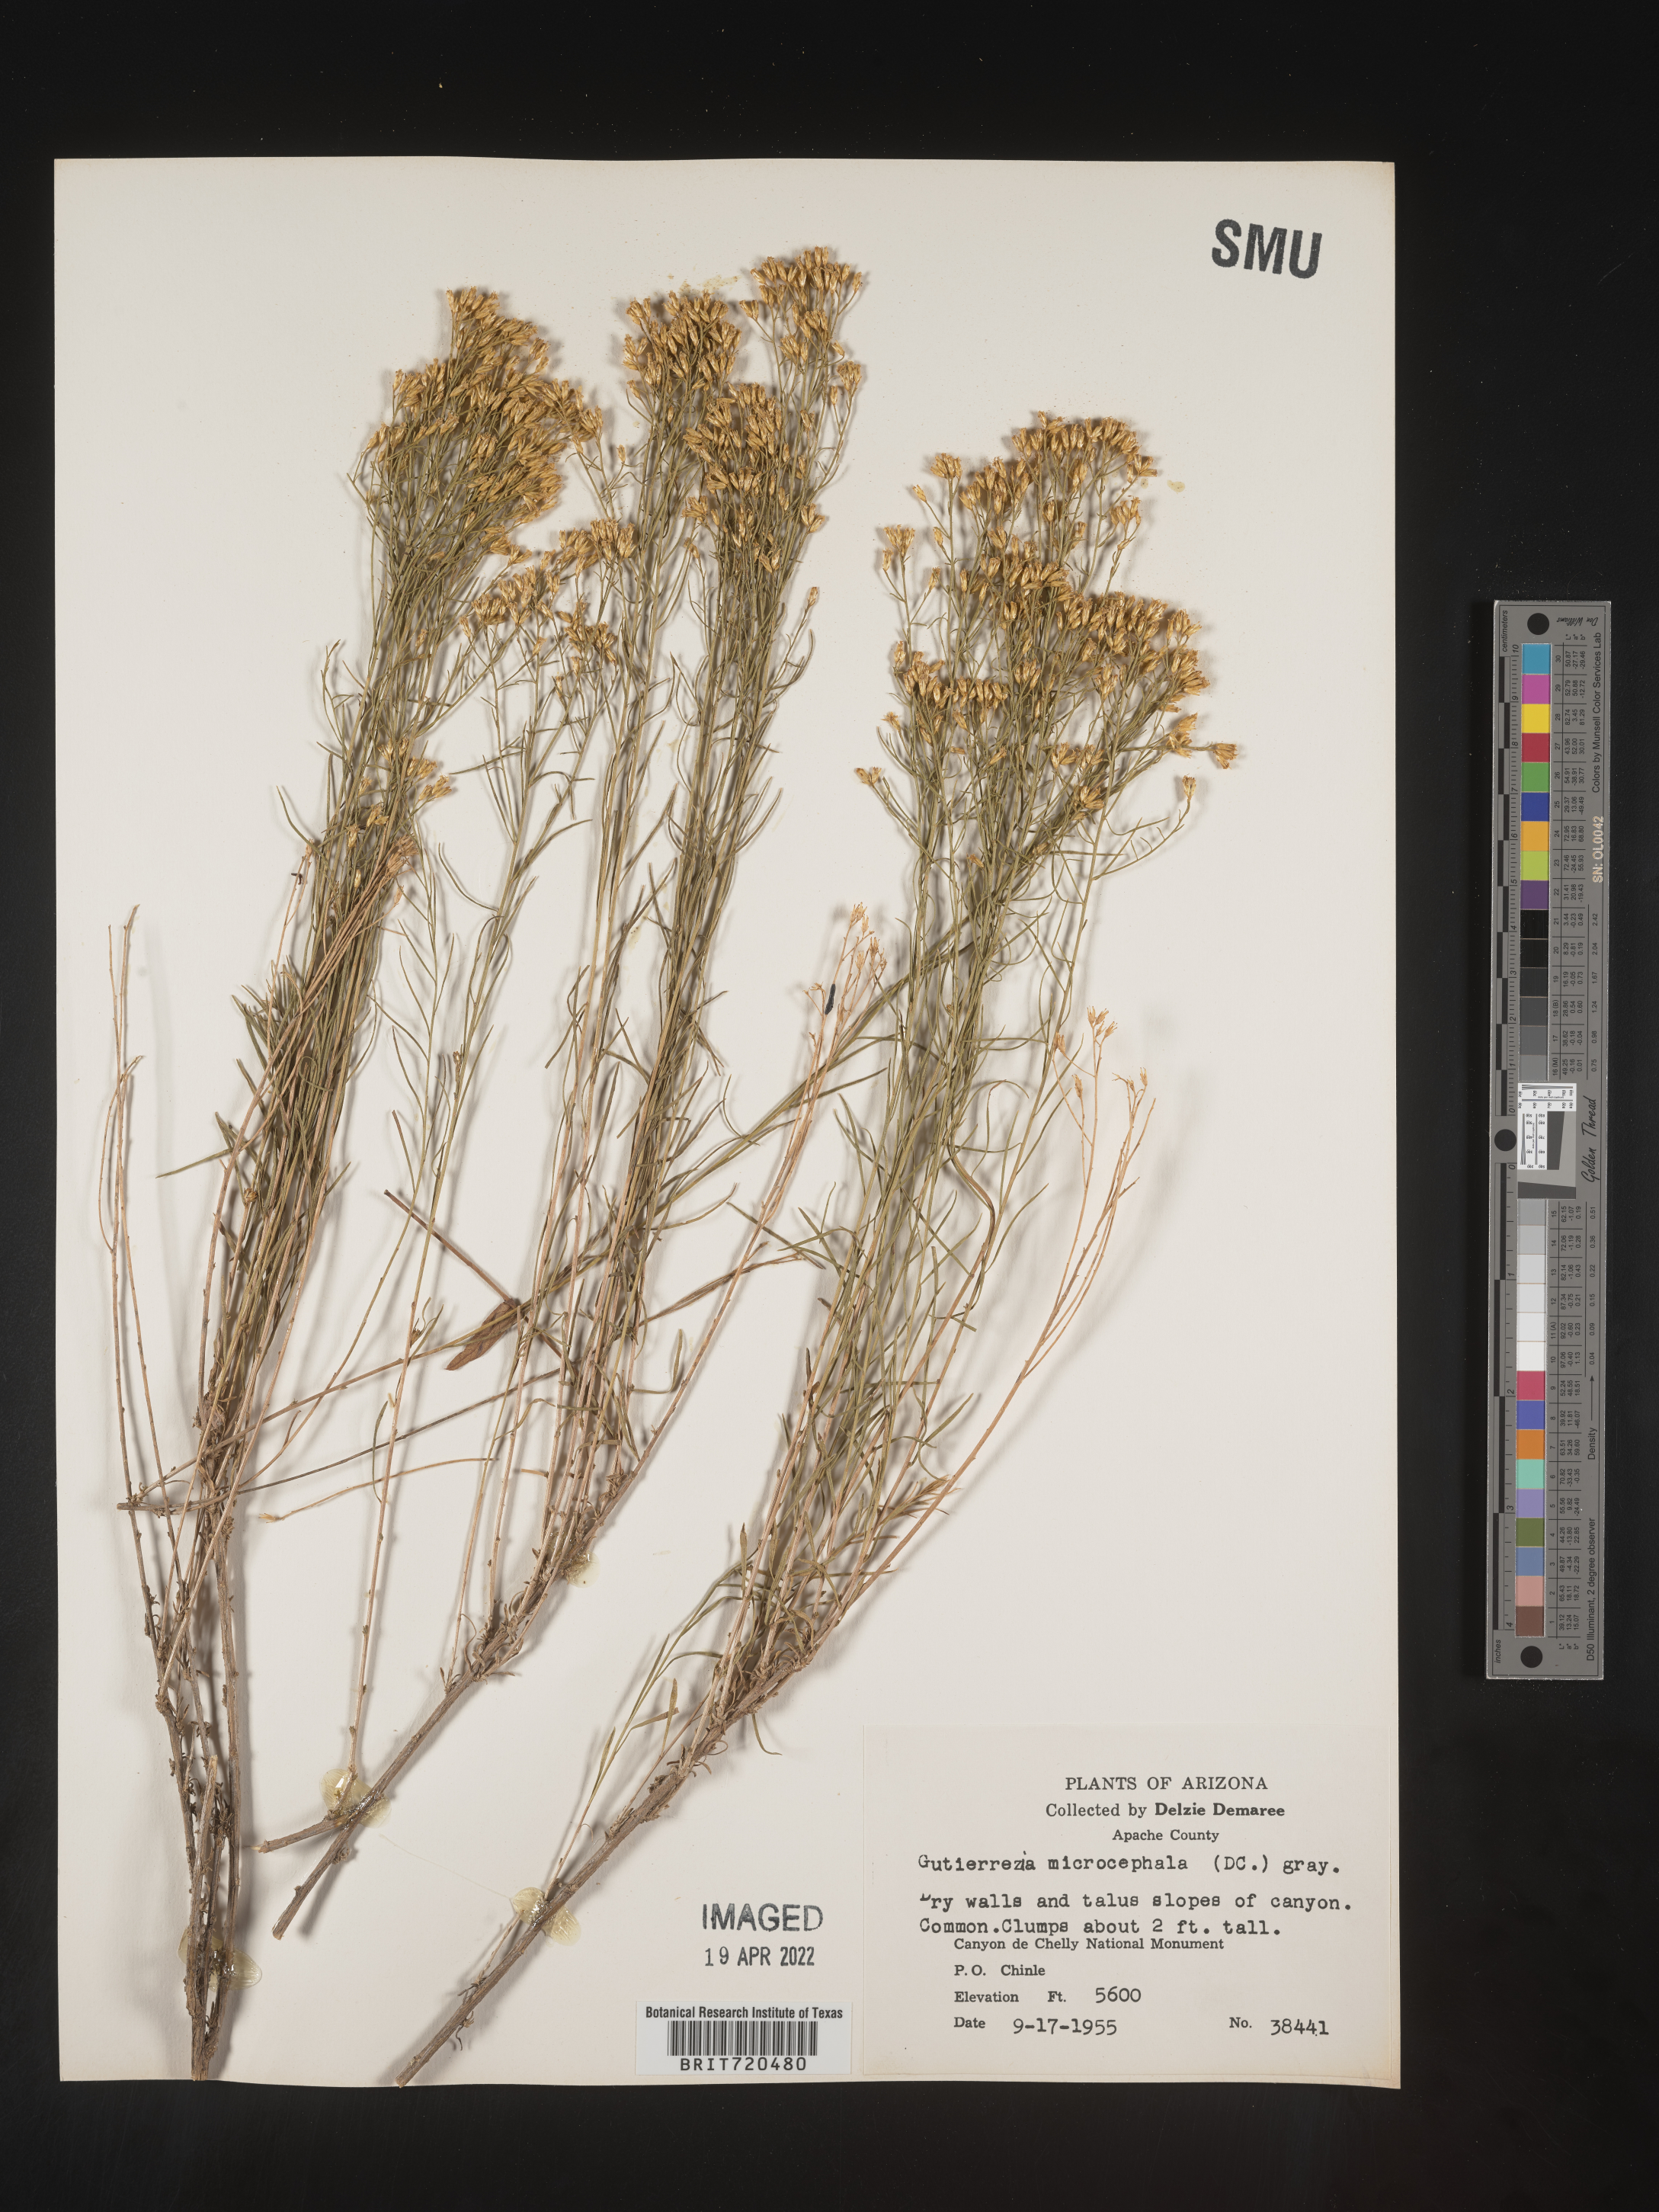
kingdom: Plantae
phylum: Tracheophyta
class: Magnoliopsida
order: Asterales
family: Asteraceae
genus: Gutierrezia
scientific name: Gutierrezia microcephala
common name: Thread snakeweed
